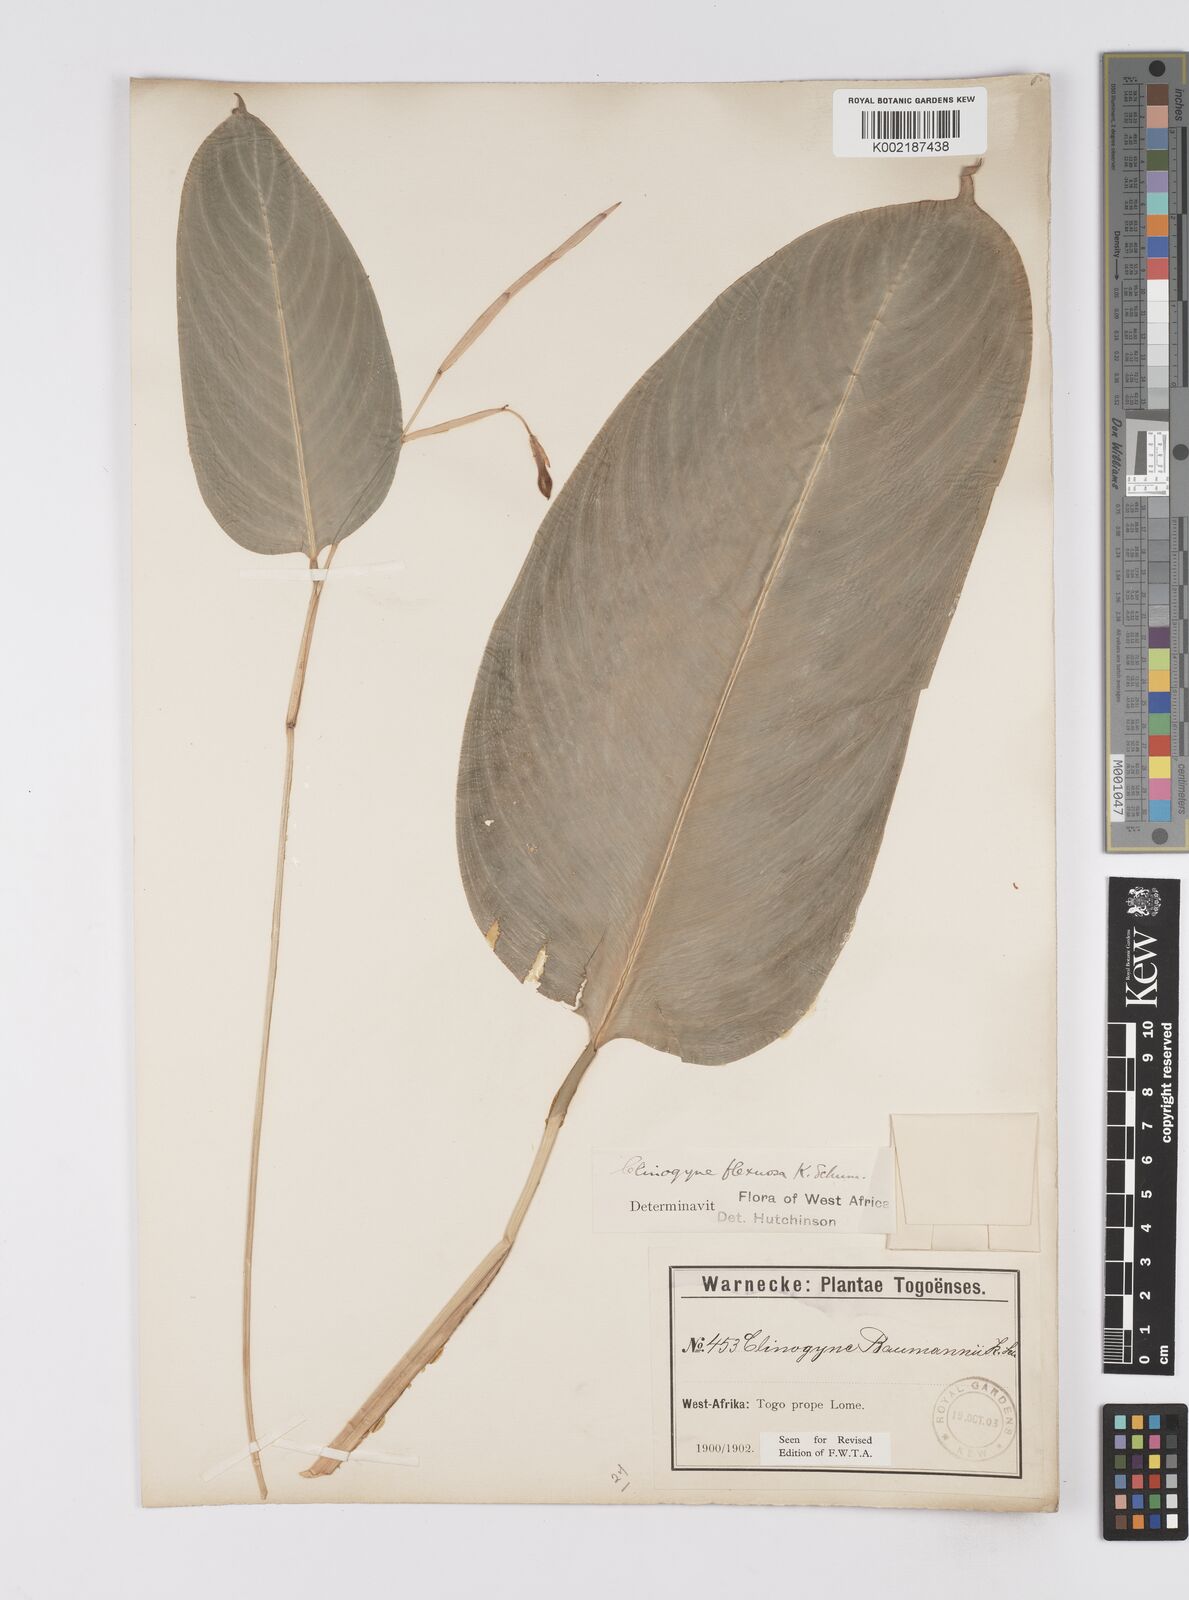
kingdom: Plantae
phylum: Tracheophyta
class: Liliopsida
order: Zingiberales
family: Marantaceae
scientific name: Marantaceae
